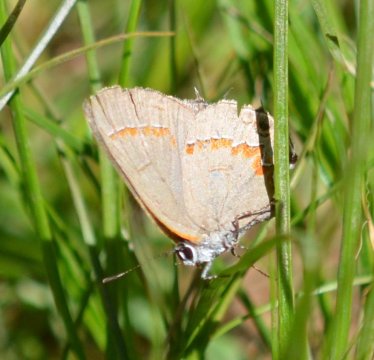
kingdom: Animalia
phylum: Arthropoda
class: Insecta
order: Lepidoptera
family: Lycaenidae
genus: Calycopis
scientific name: Calycopis cecrops
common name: Red-banded Hairstreak
